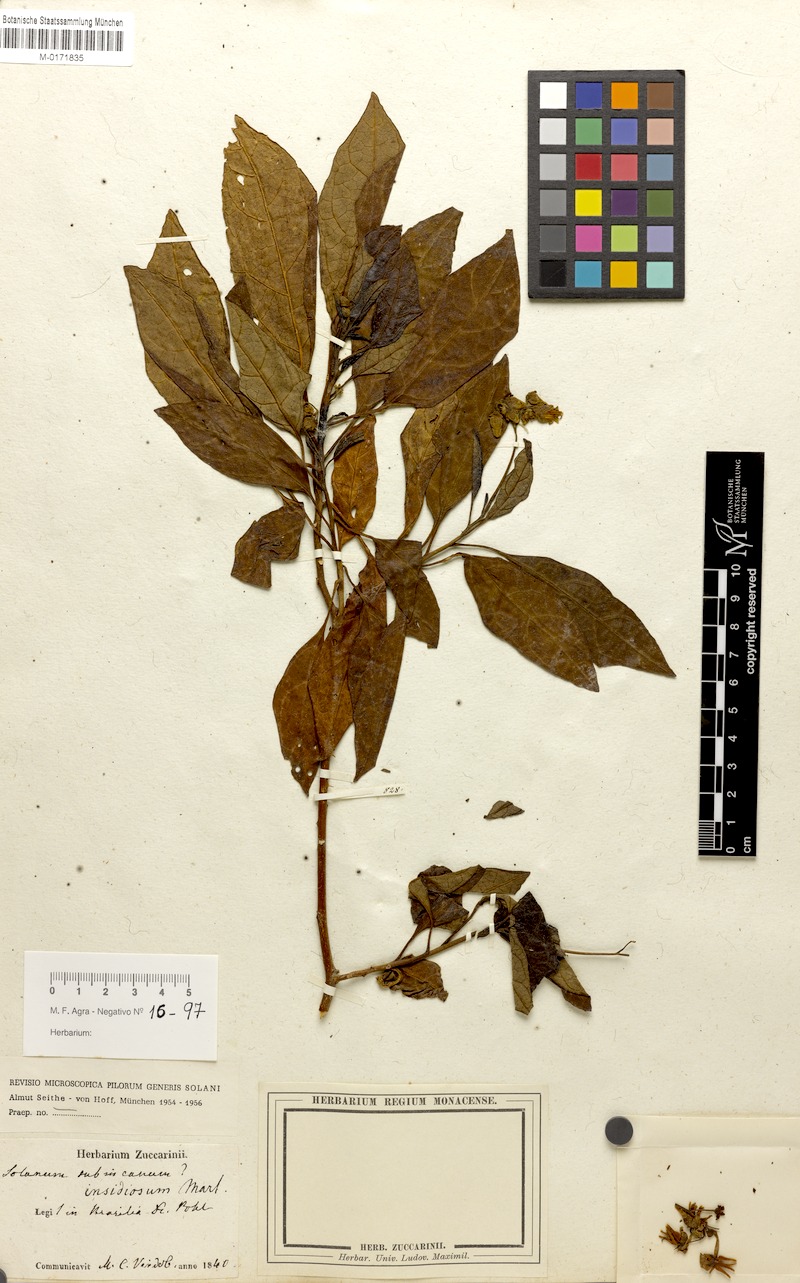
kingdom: Plantae
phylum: Tracheophyta
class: Magnoliopsida
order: Solanales
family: Solanaceae
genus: Solanum
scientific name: Solanum insidiosum
